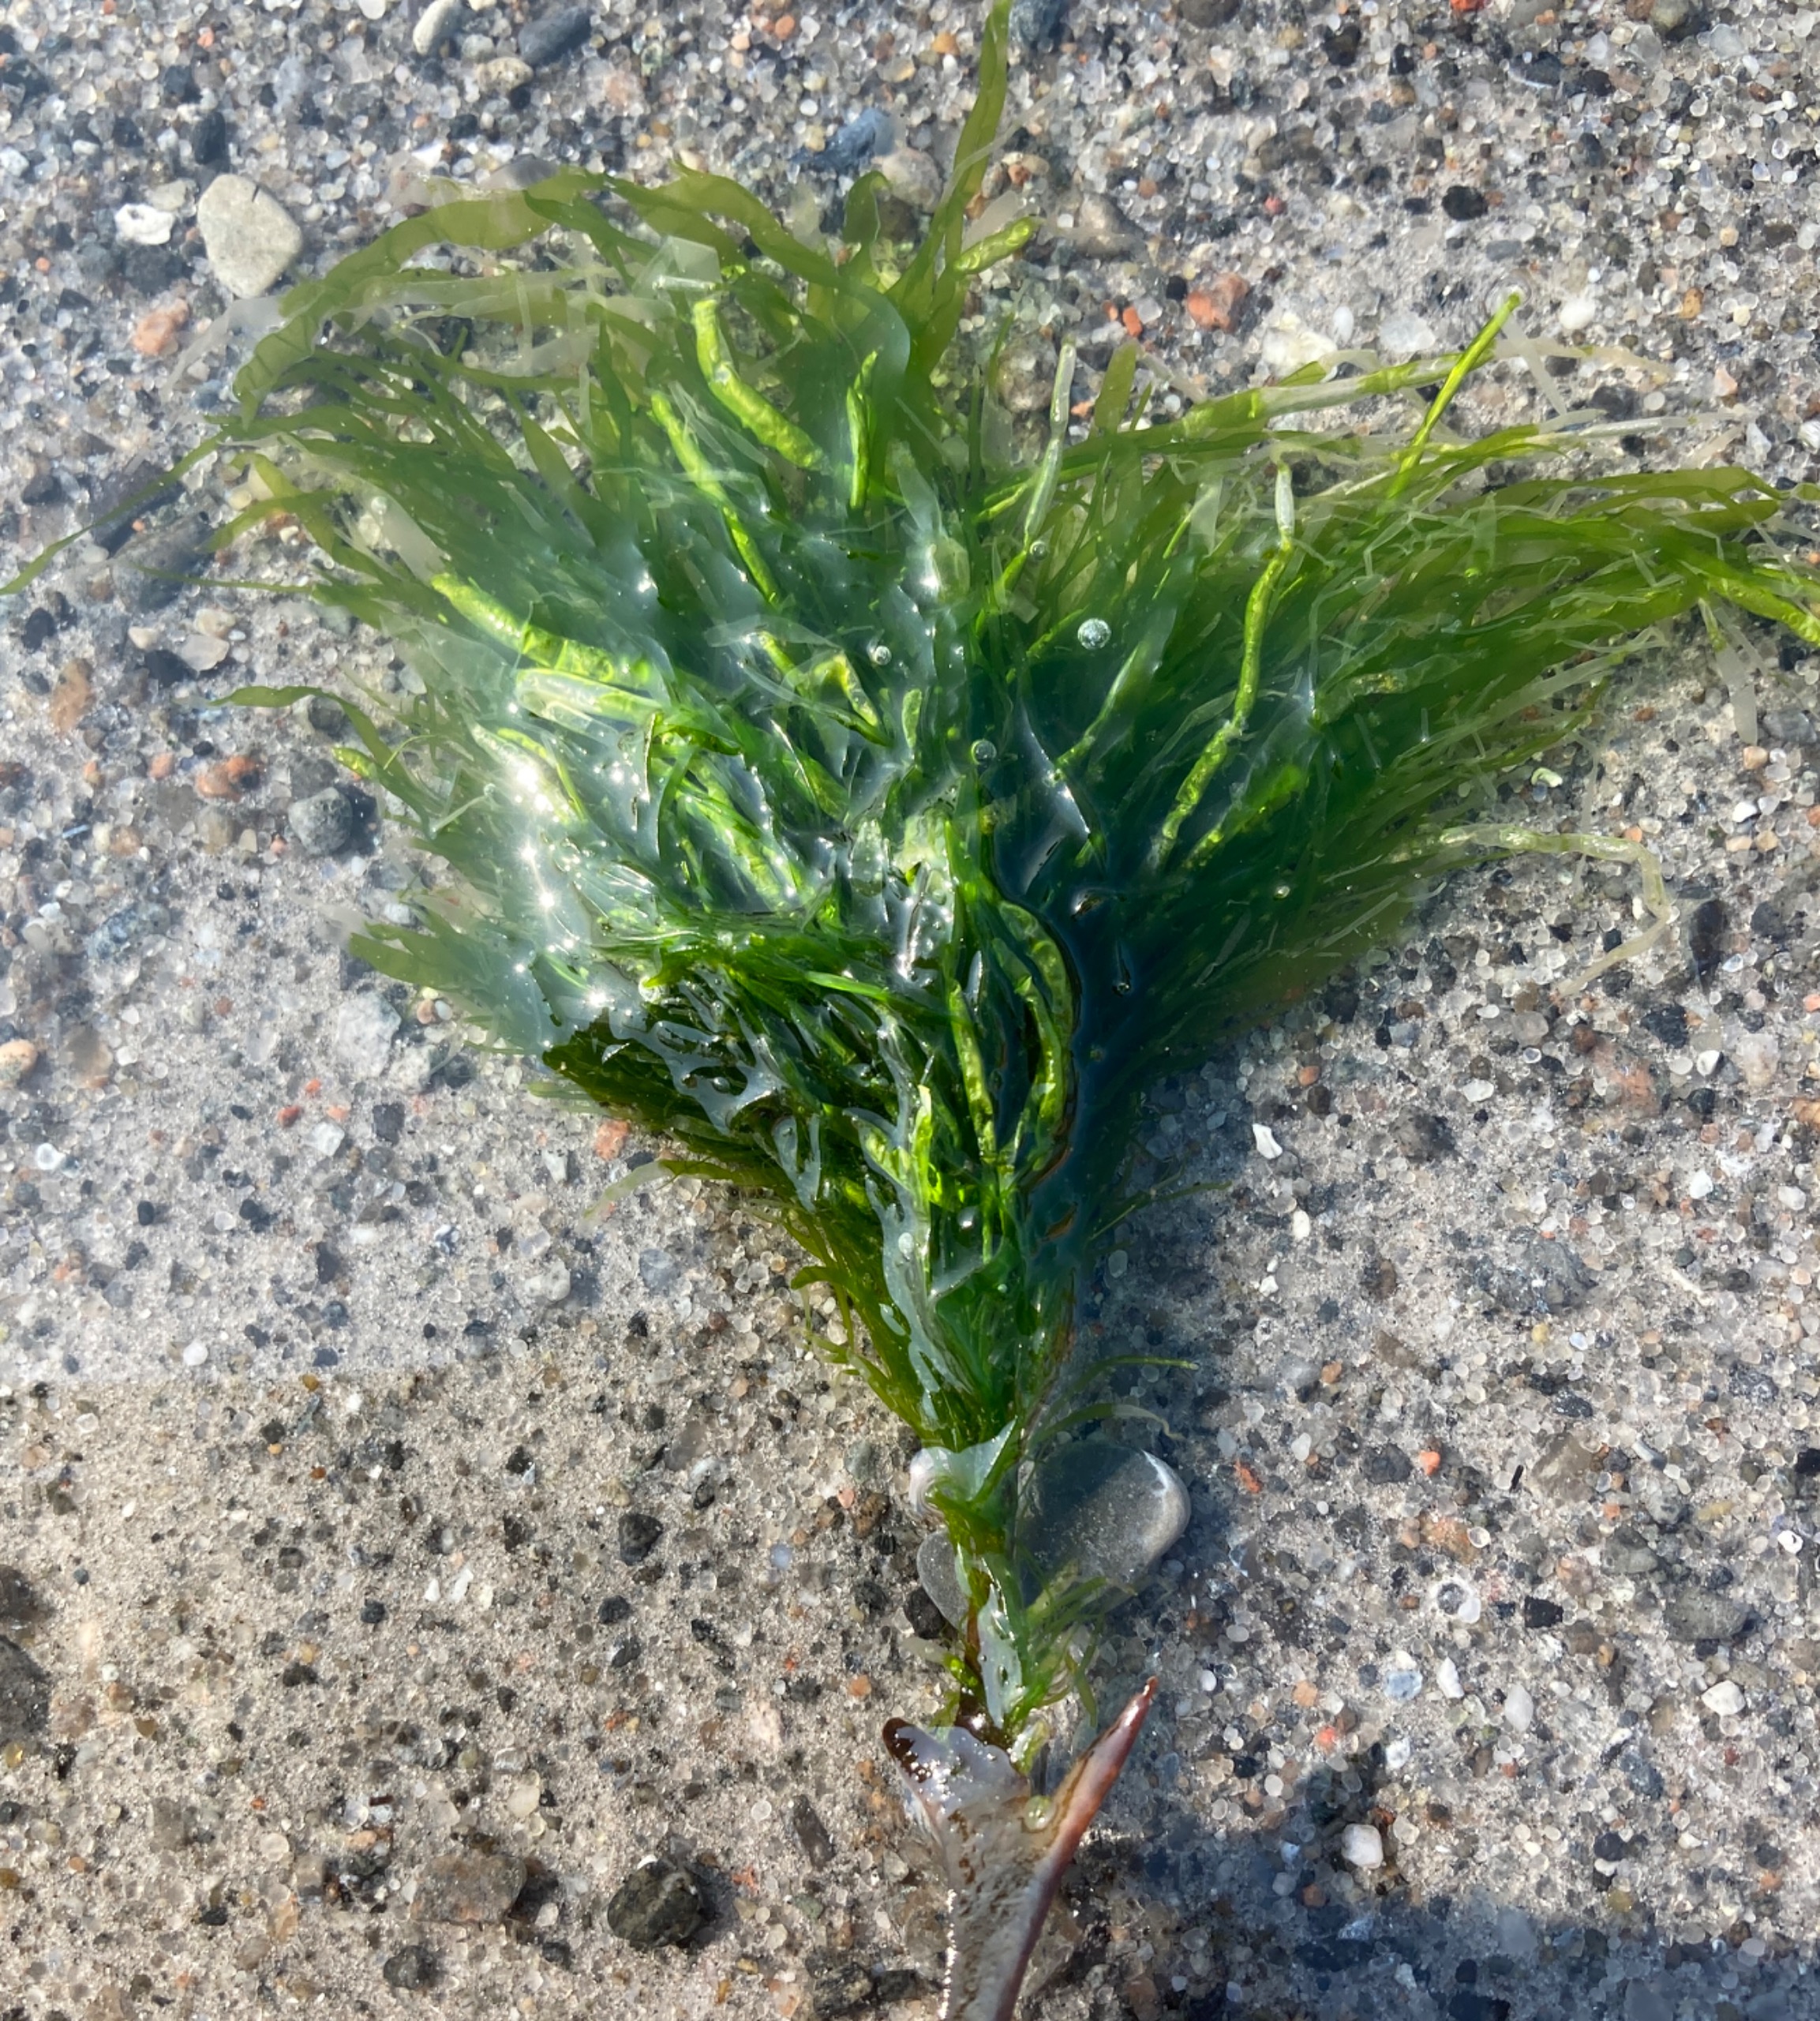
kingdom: Plantae
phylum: Chlorophyta
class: Ulvophyceae
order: Ulvales
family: Ulvaceae
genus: Ulva
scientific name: Ulva intestinalis
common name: Tarm-rørhinde
